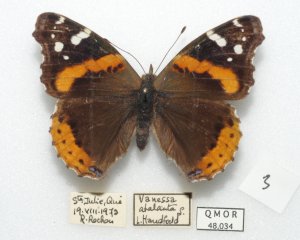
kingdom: Animalia
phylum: Arthropoda
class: Insecta
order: Lepidoptera
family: Nymphalidae
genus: Vanessa
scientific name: Vanessa atalanta
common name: Red Admiral
